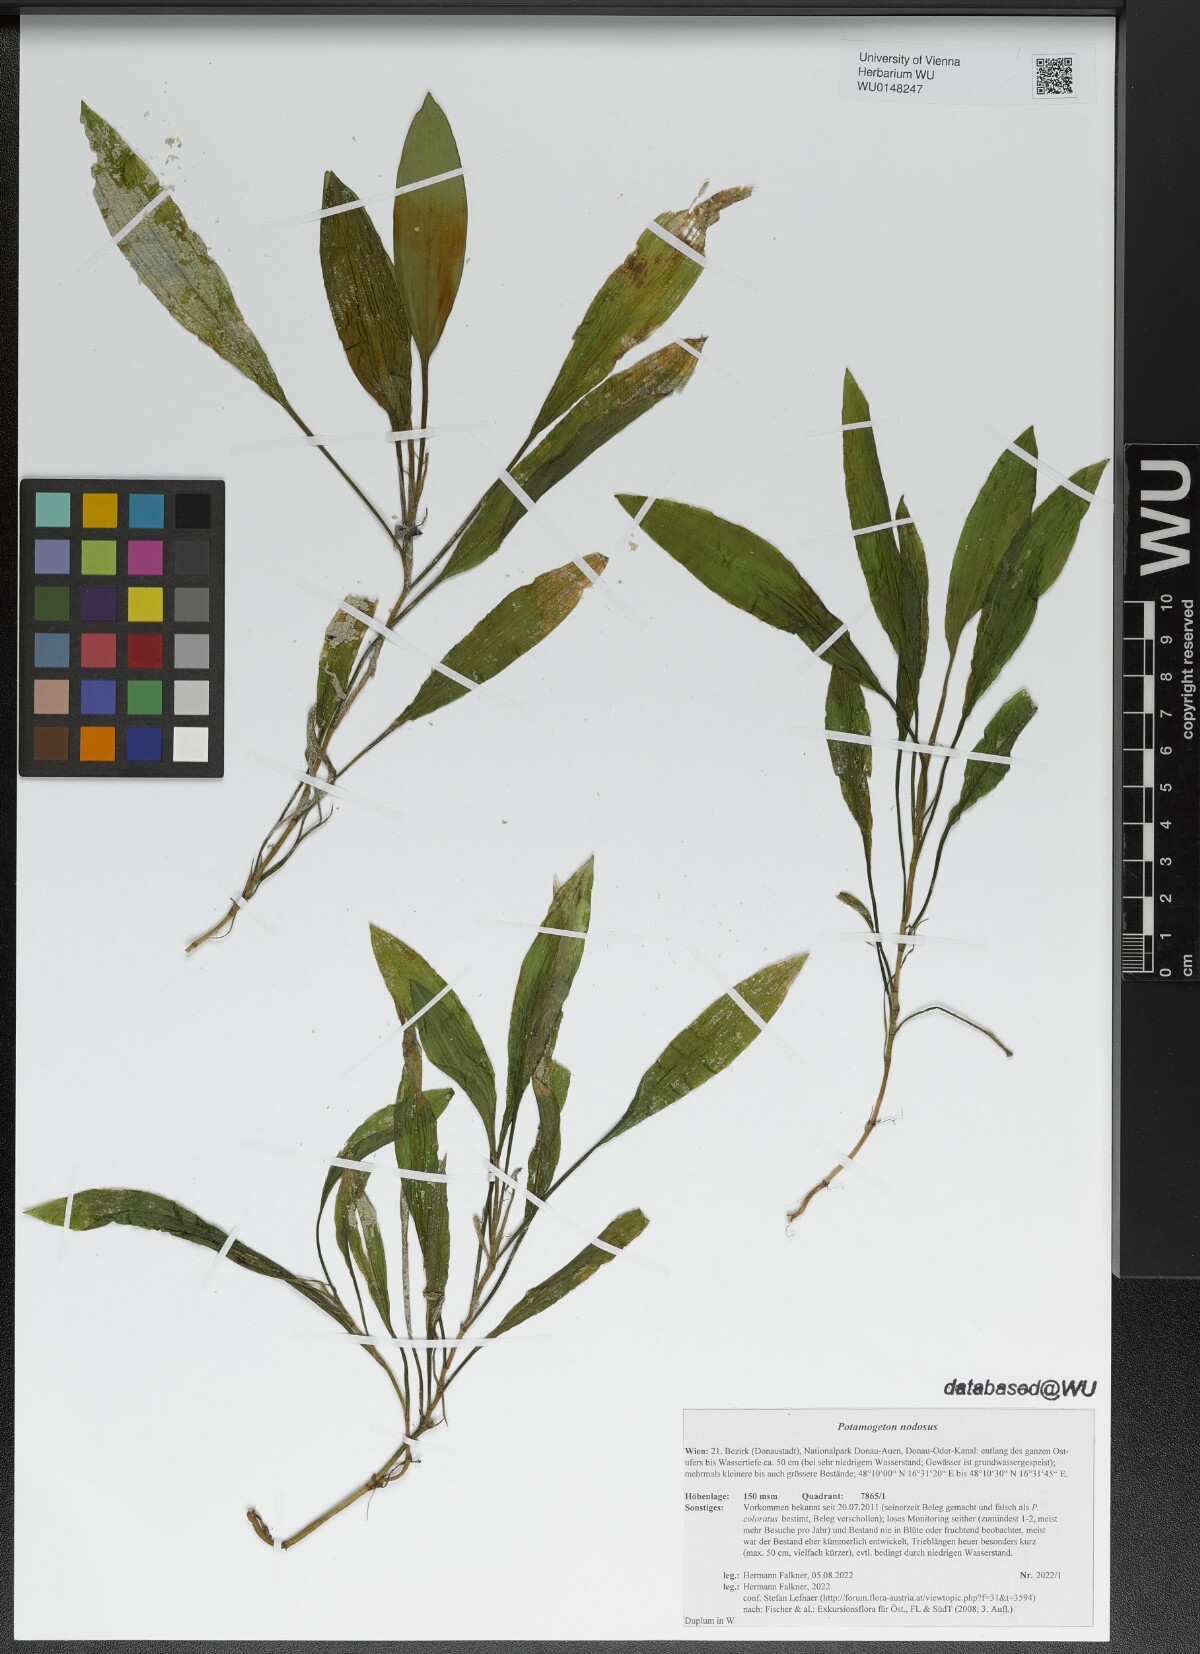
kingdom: Plantae
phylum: Tracheophyta
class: Liliopsida
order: Alismatales
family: Potamogetonaceae
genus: Potamogeton
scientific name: Potamogeton nodosus
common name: Loddon pondweed
